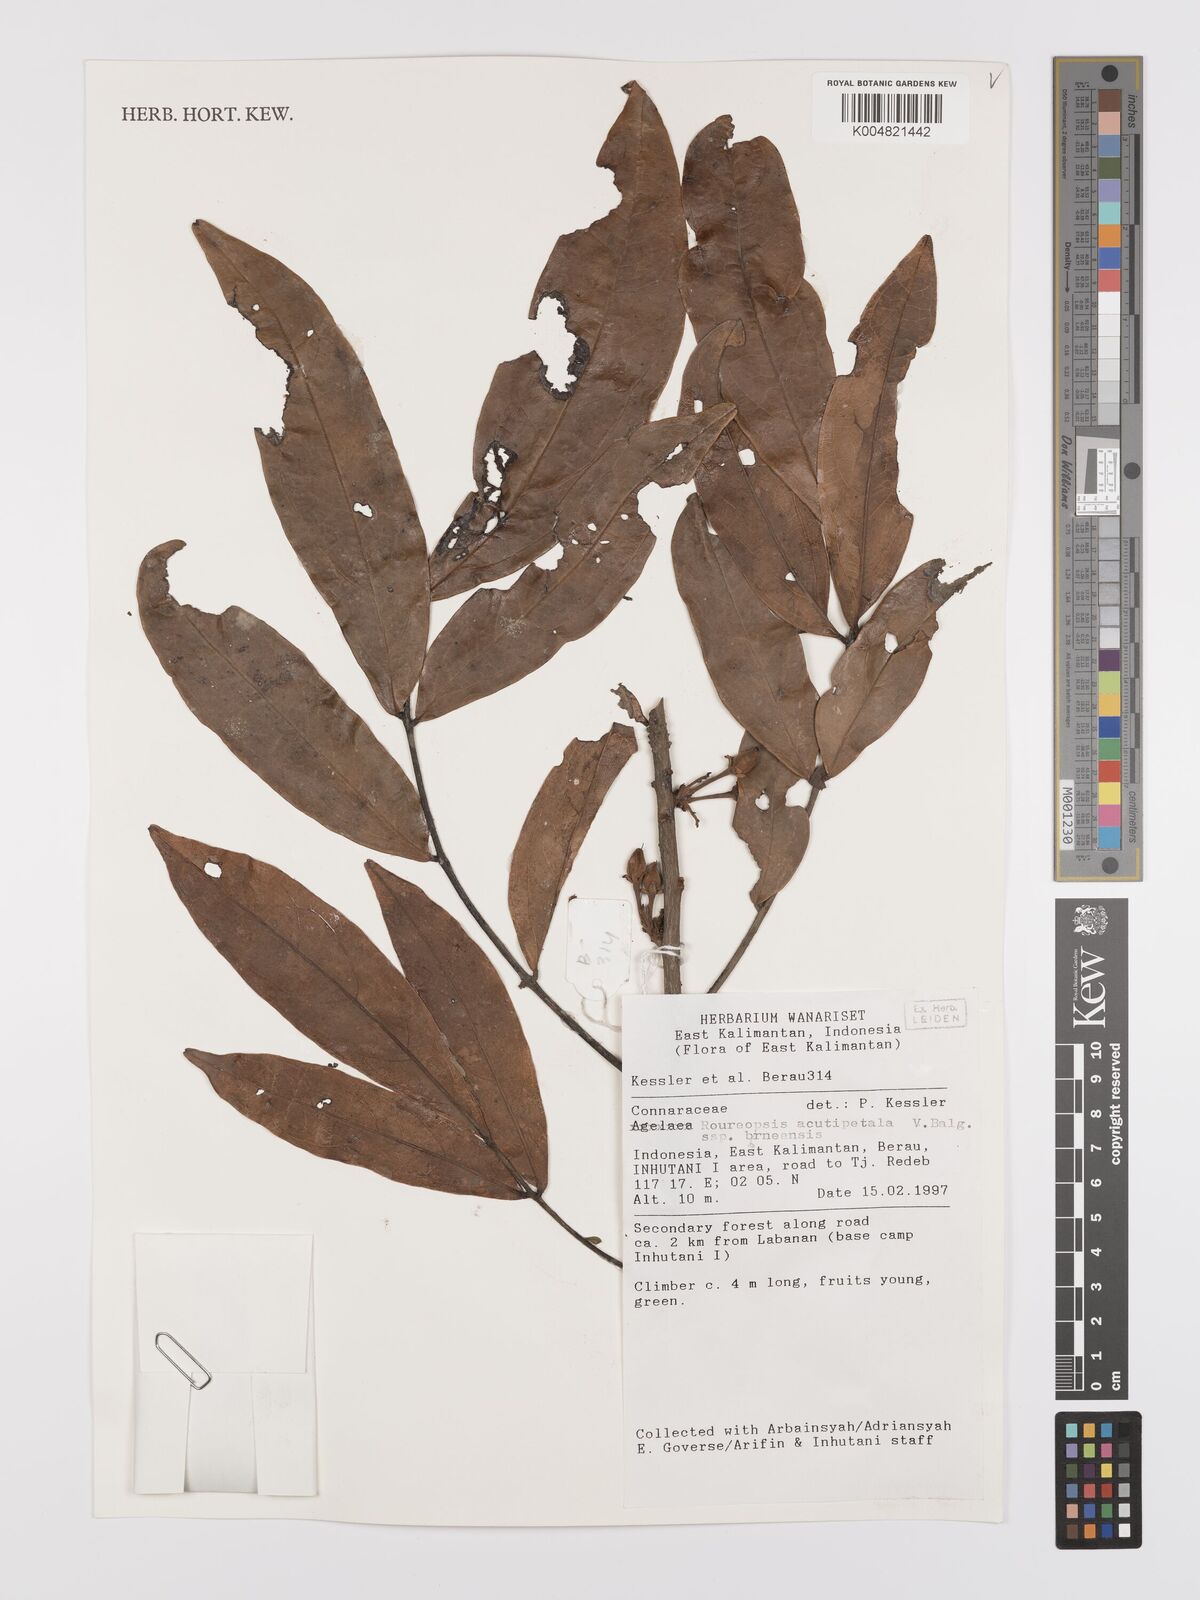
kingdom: Plantae
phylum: Tracheophyta
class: Magnoliopsida
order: Oxalidales
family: Connaraceae
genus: Rourea
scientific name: Rourea acutipetala
